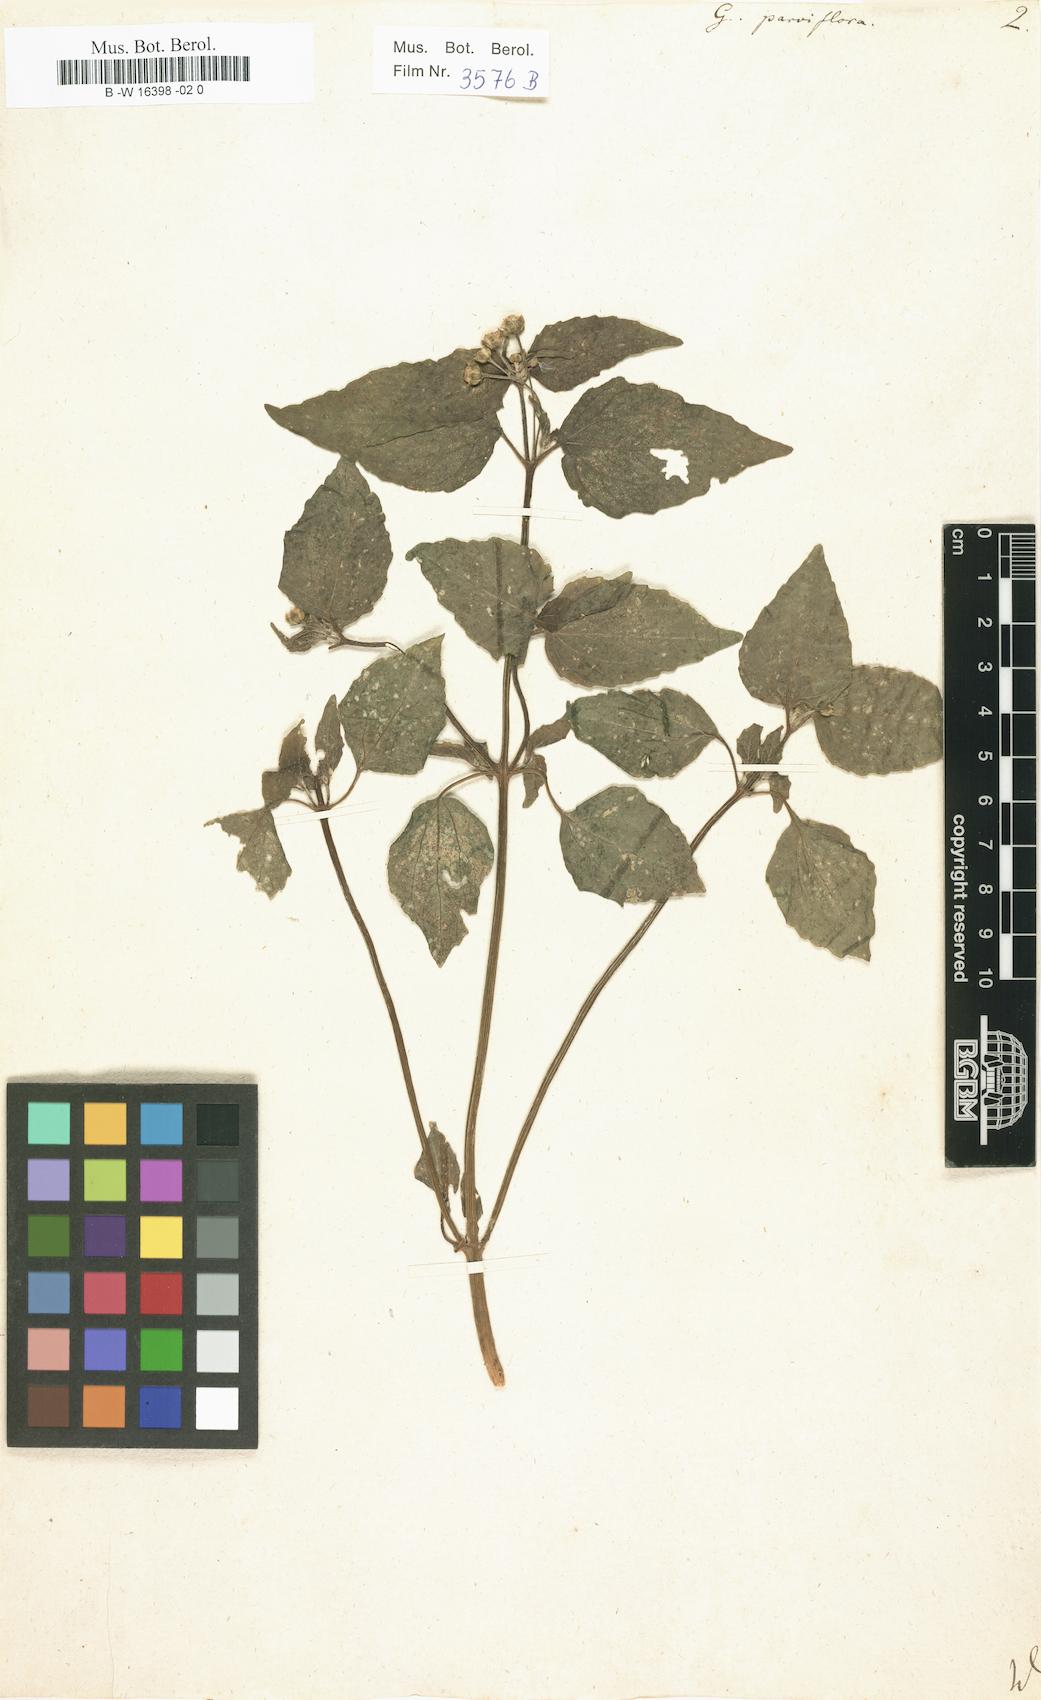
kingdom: Plantae
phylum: Tracheophyta
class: Magnoliopsida
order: Asterales
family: Asteraceae
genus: Galinsoga
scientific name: Galinsoga parviflora
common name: Gallant soldier
